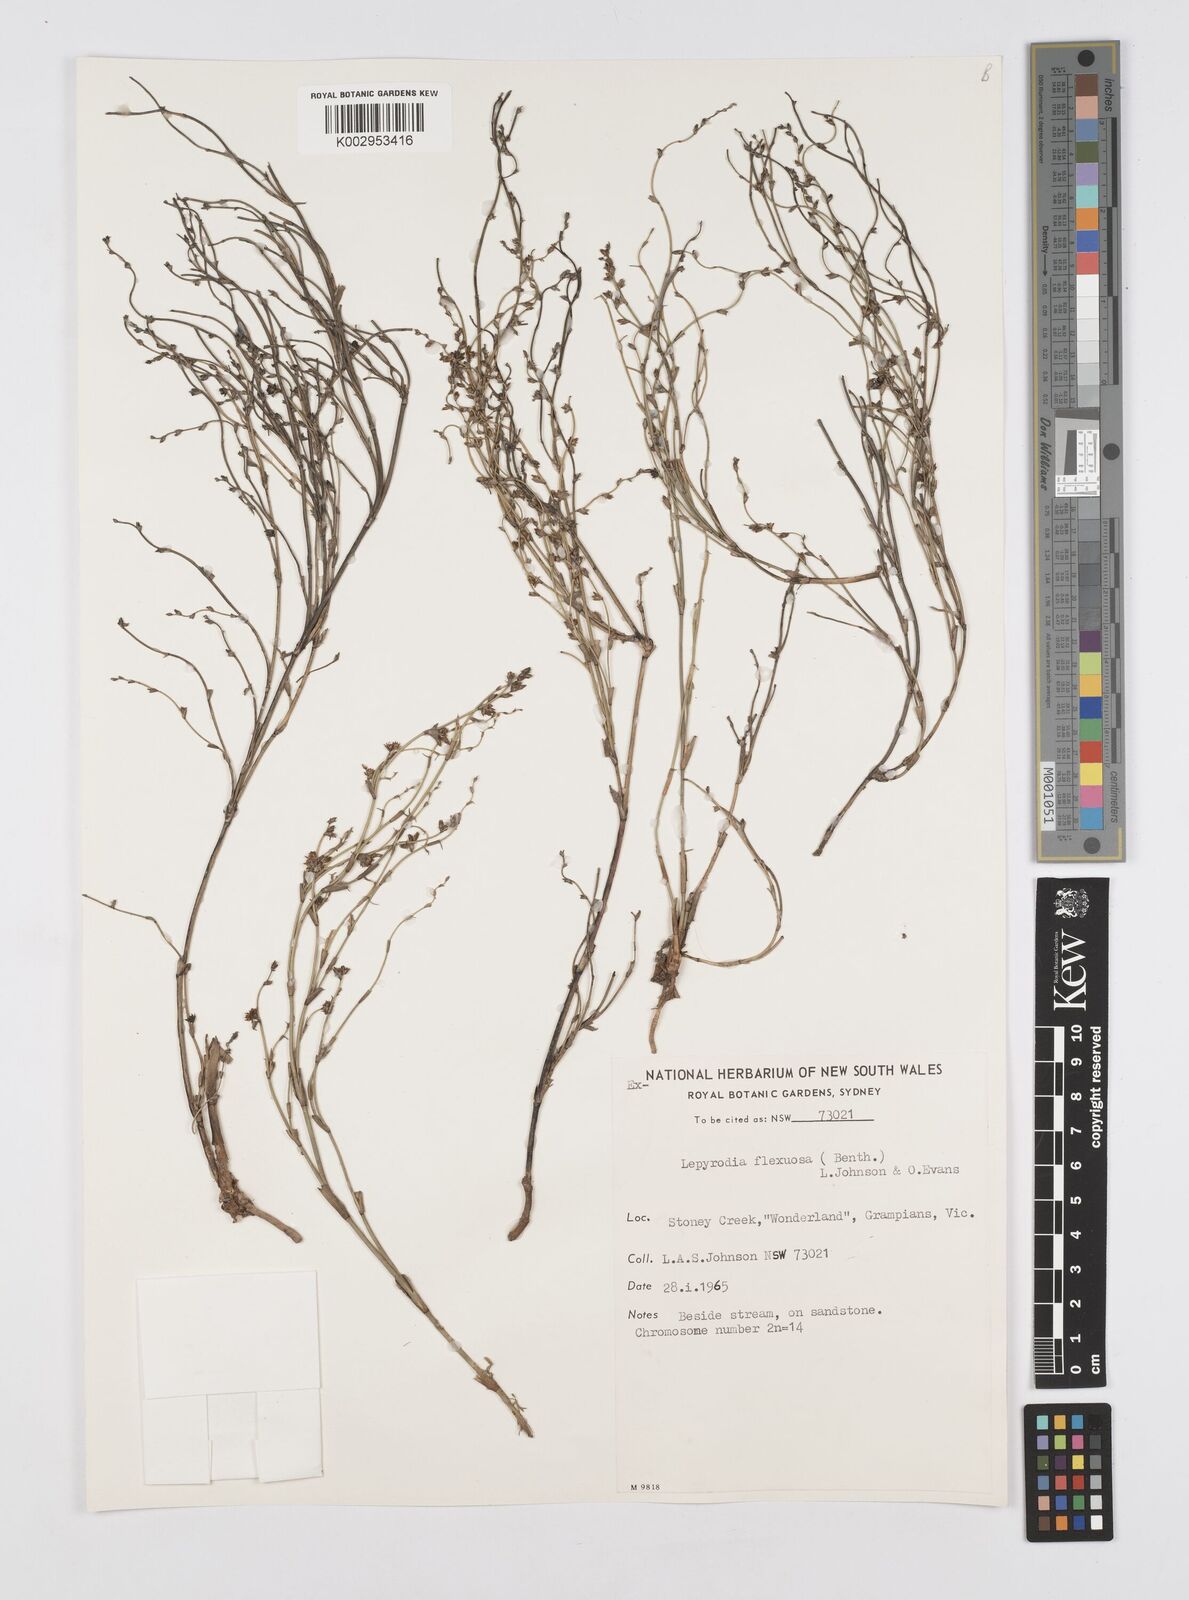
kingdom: Plantae
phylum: Tracheophyta
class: Liliopsida
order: Poales
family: Restionaceae
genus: Lepyrodia
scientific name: Lepyrodia flexuosa
